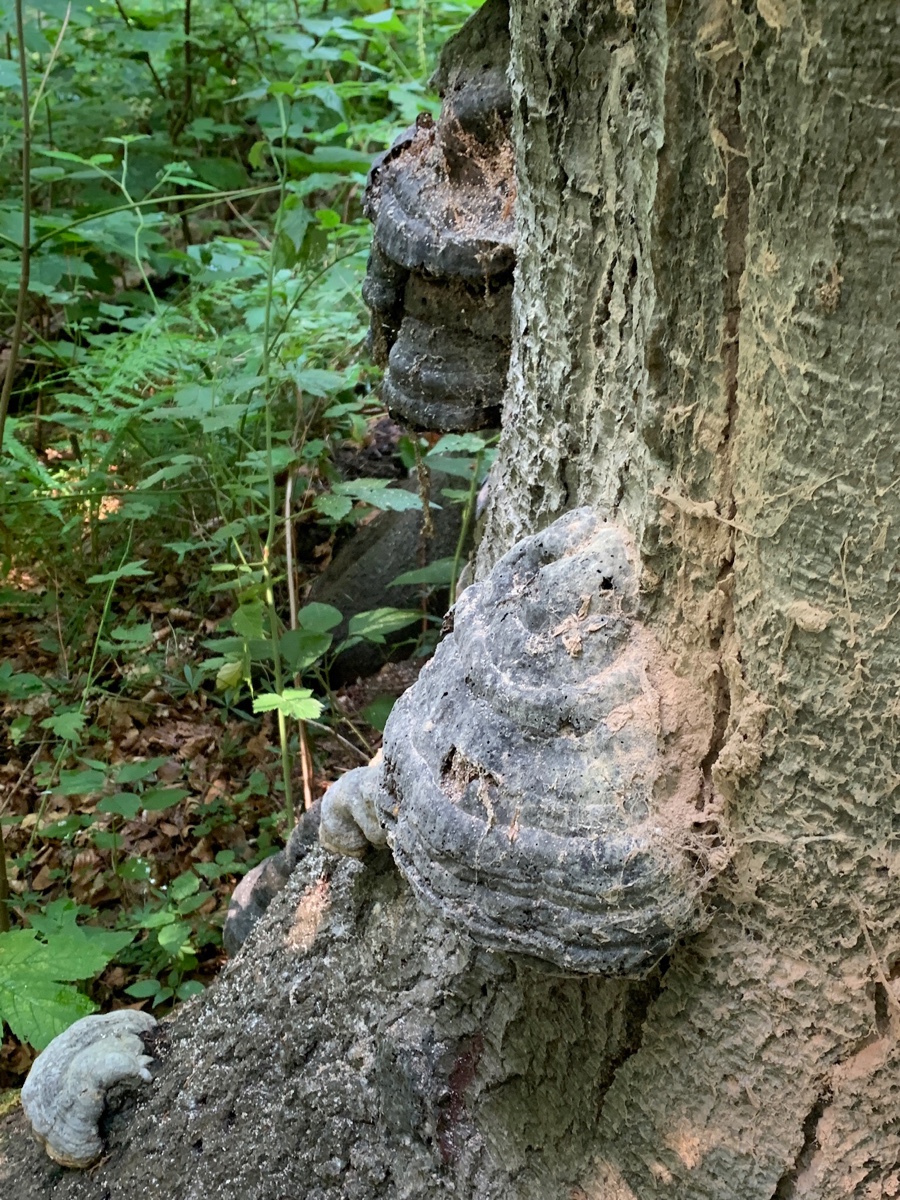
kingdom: Fungi
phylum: Basidiomycota
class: Agaricomycetes
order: Polyporales
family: Polyporaceae
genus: Fomes
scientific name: Fomes fomentarius
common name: tøndersvamp
